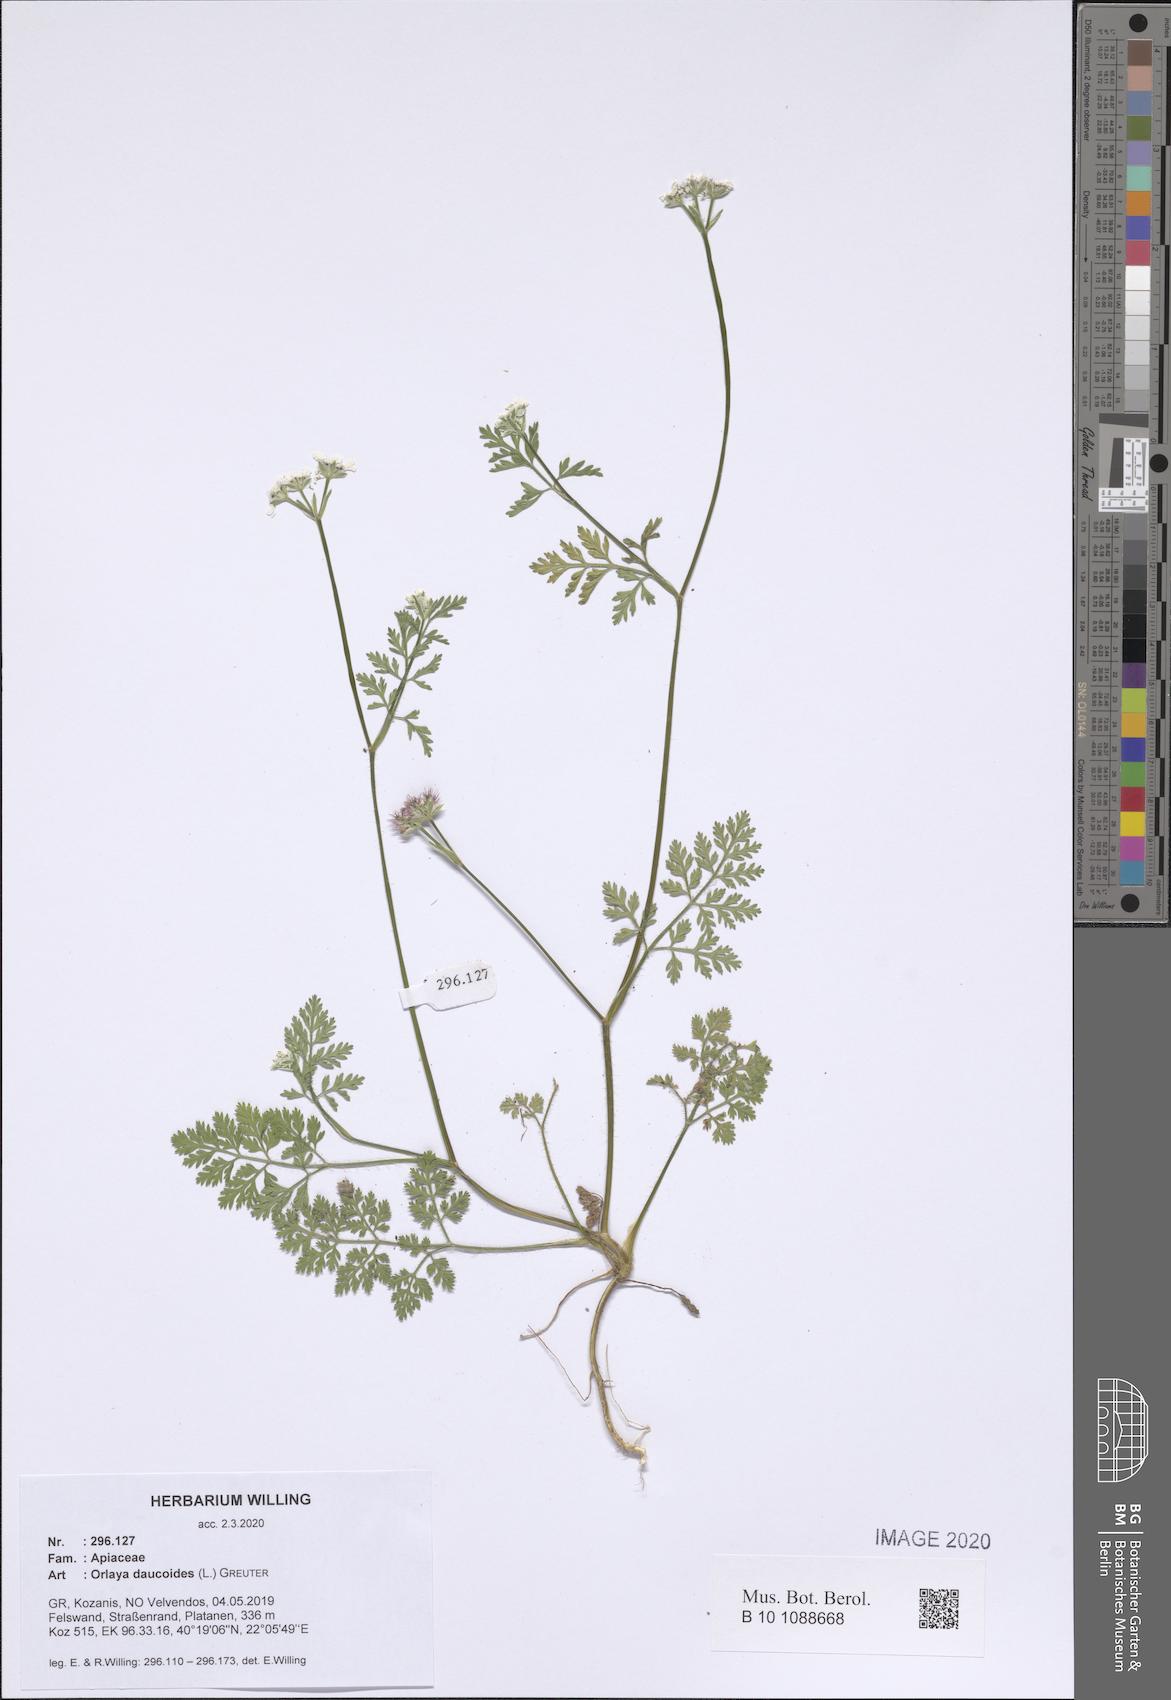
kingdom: Plantae
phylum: Tracheophyta
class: Magnoliopsida
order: Apiales
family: Apiaceae
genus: Orlaya
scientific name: Orlaya daucoides
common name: Flat-fruit orlaya
